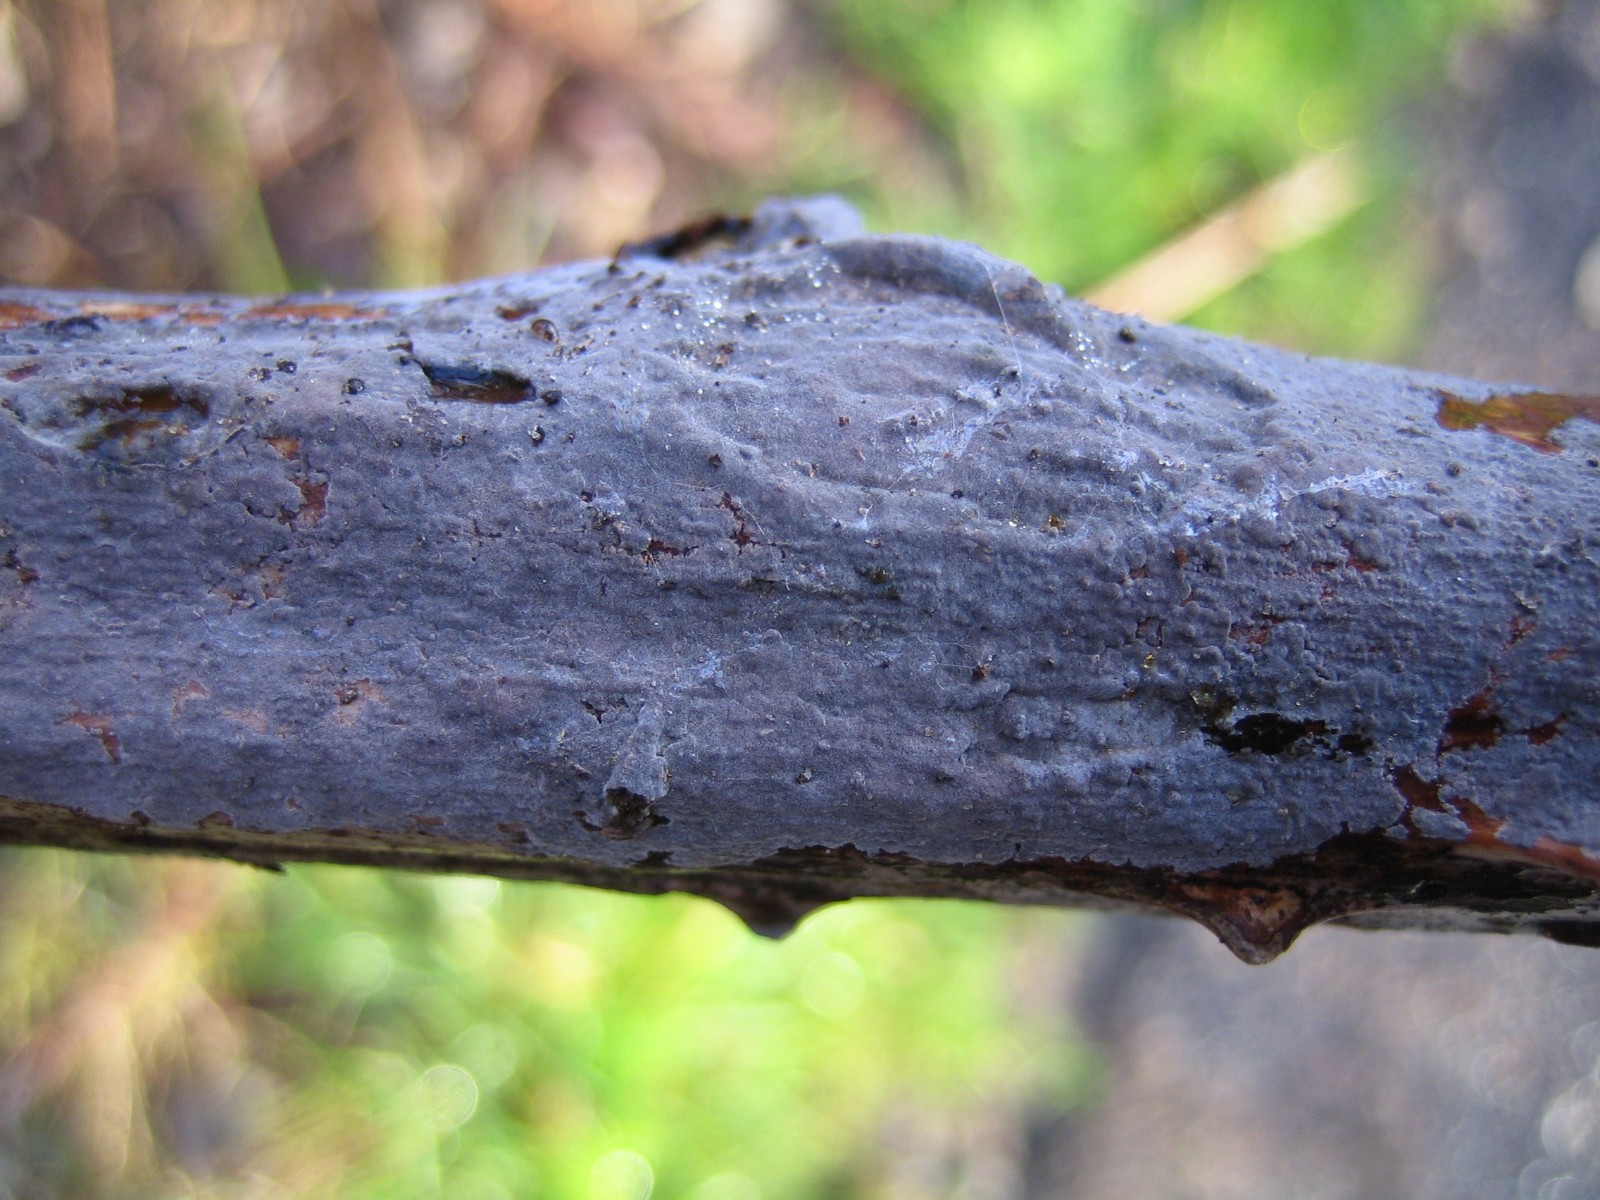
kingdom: Fungi
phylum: Basidiomycota
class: Agaricomycetes
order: Russulales
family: Peniophoraceae
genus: Peniophora
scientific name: Peniophora
